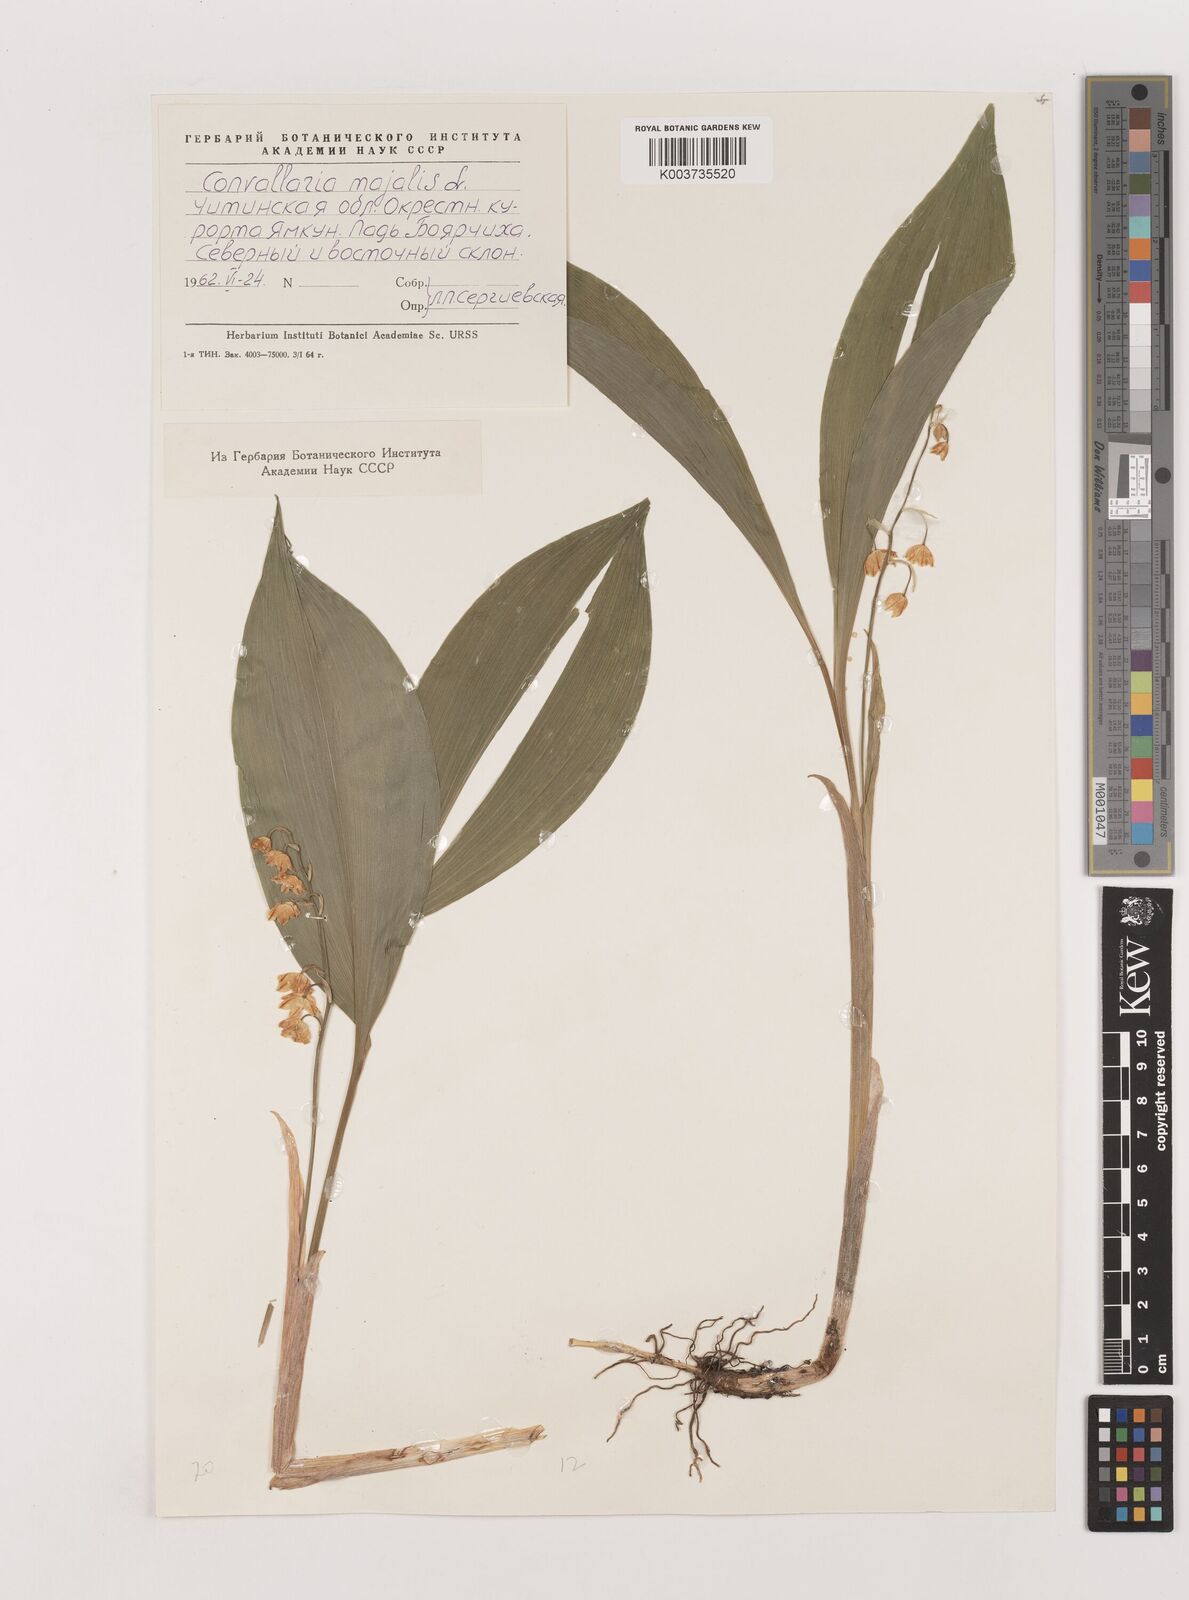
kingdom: Plantae
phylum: Tracheophyta
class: Liliopsida
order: Asparagales
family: Asparagaceae
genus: Convallaria
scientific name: Convallaria majalis
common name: Lily-of-the-valley
